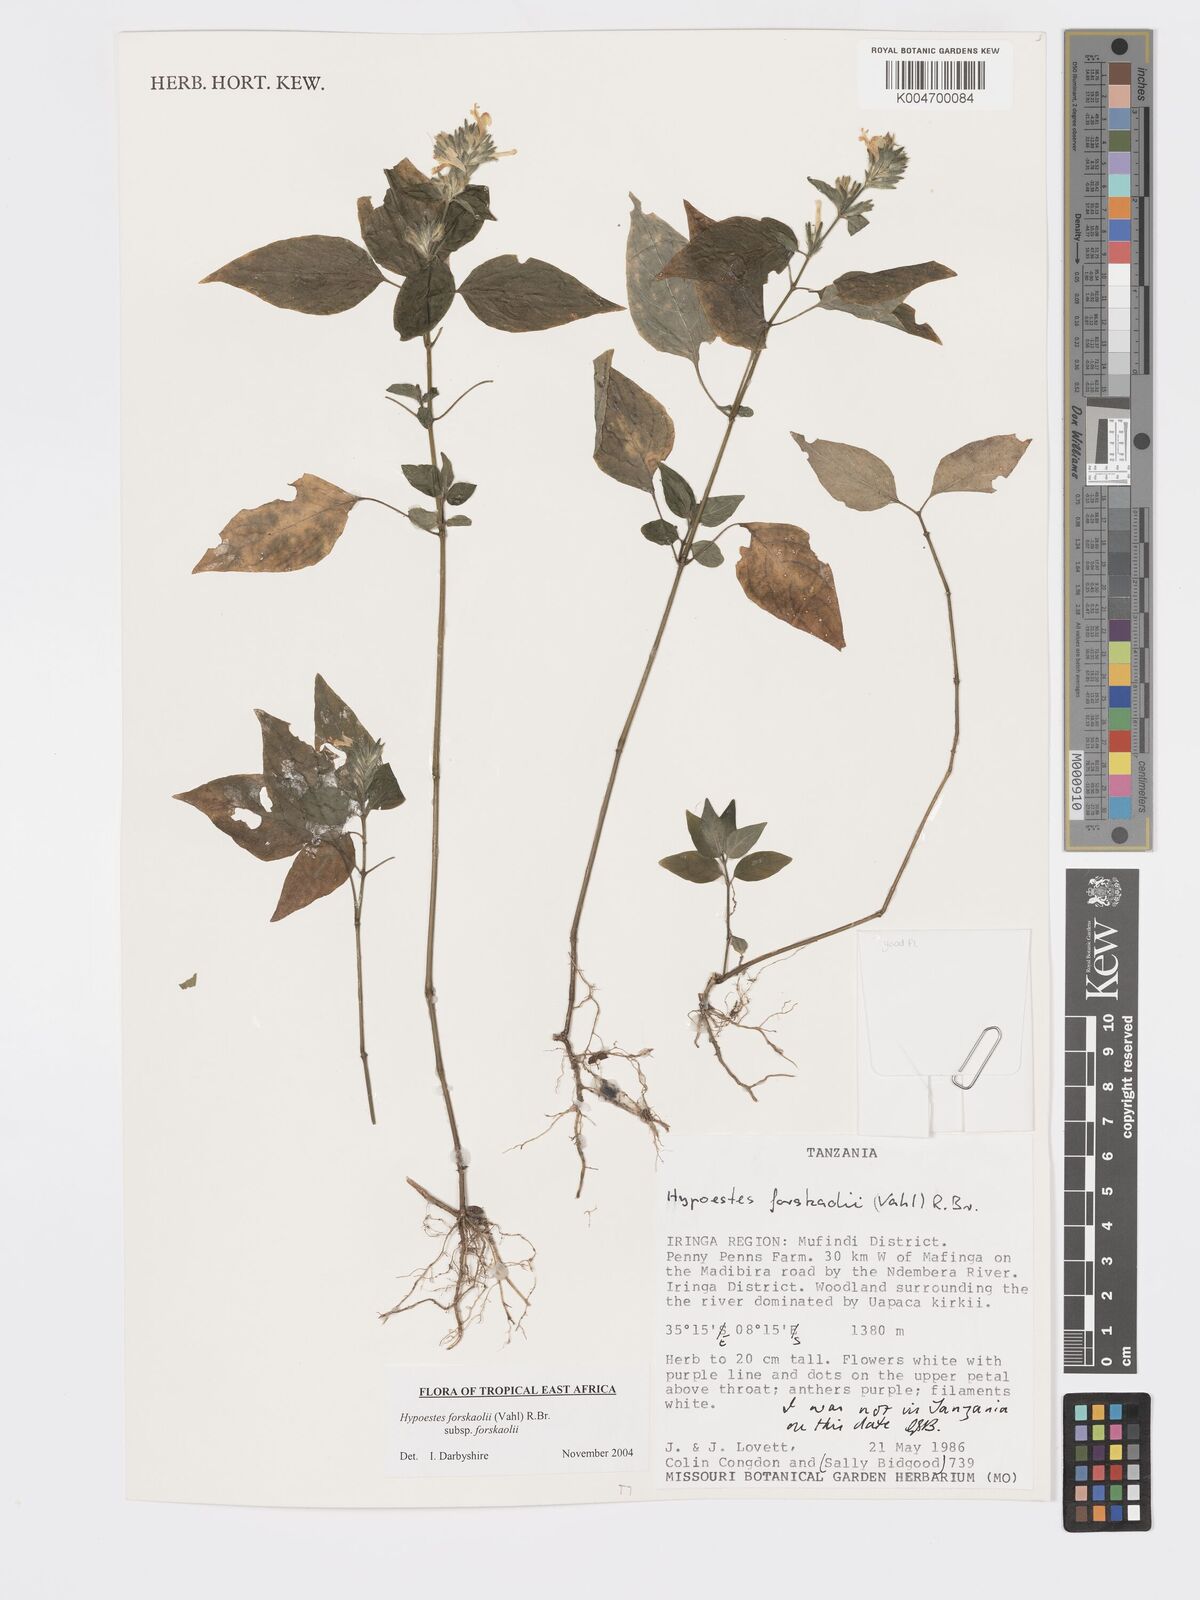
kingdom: Plantae
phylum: Tracheophyta
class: Magnoliopsida
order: Lamiales
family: Acanthaceae
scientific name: Acanthaceae
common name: Acanthaceae
